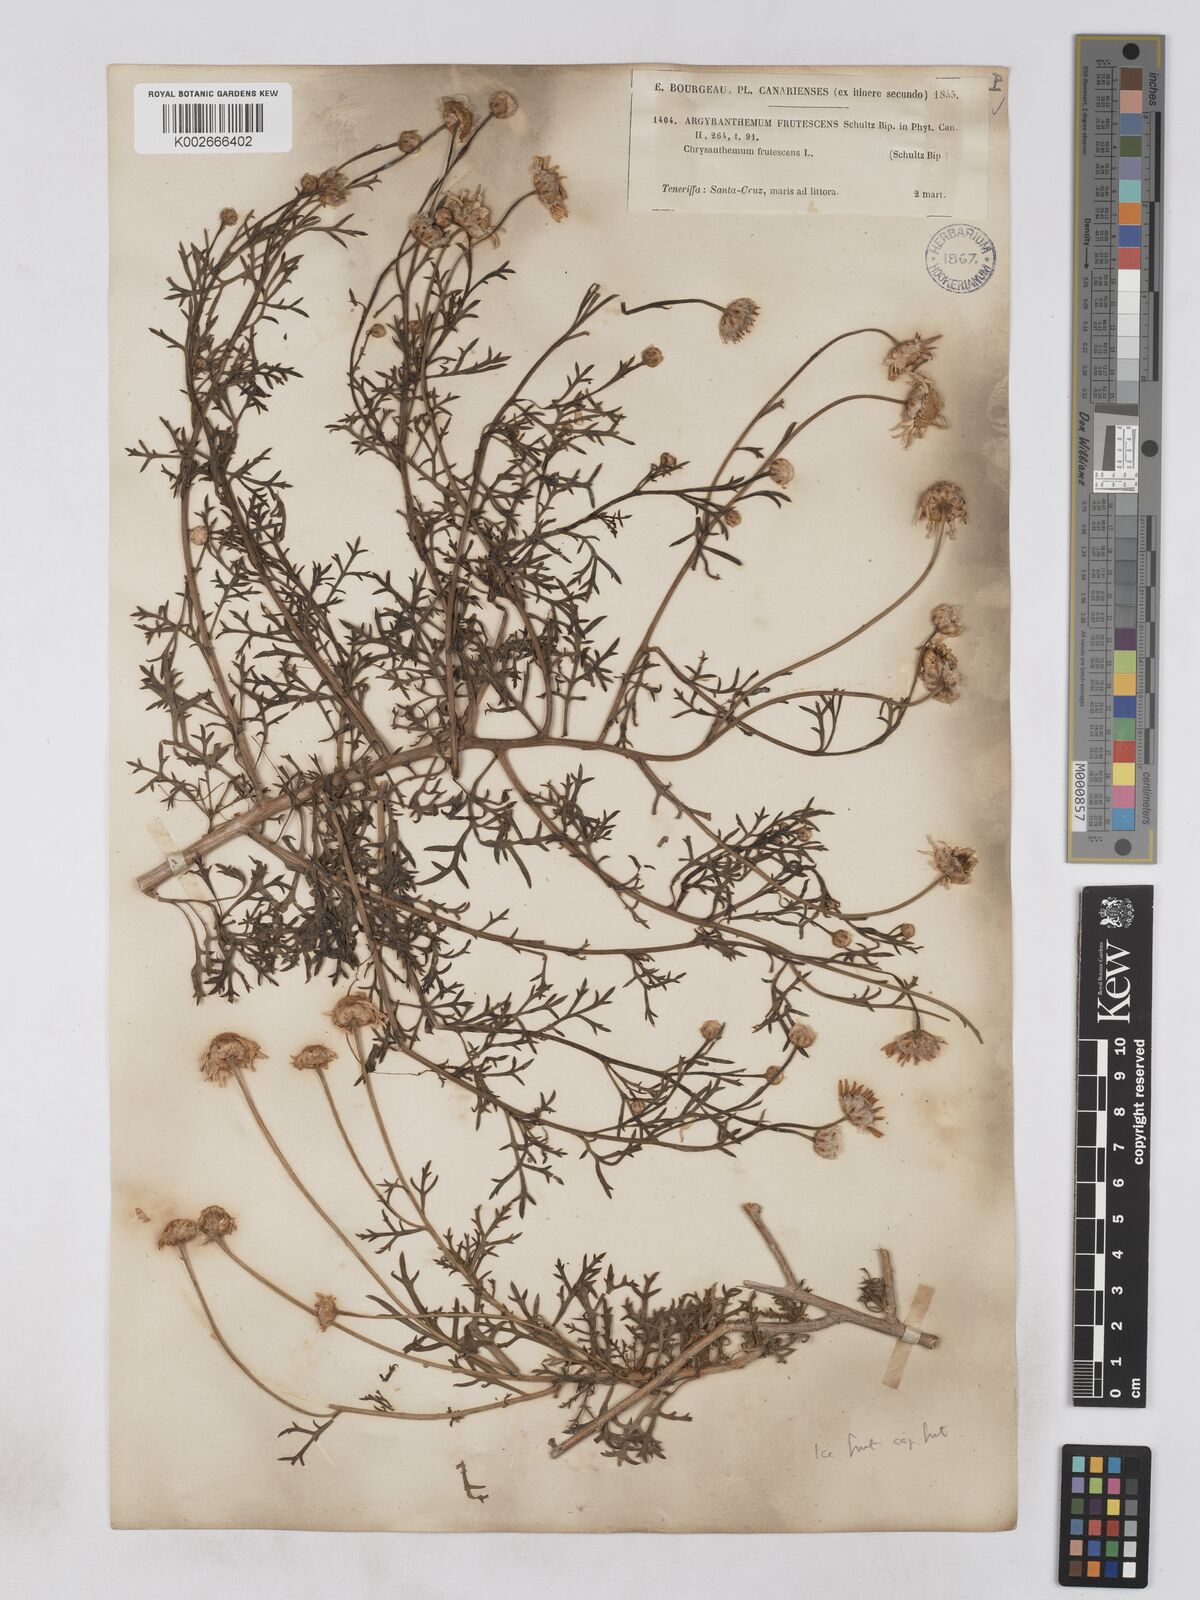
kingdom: Plantae
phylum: Tracheophyta
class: Magnoliopsida
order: Asterales
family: Asteraceae
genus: Argyranthemum
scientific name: Argyranthemum frutescens
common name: Paris daisy
